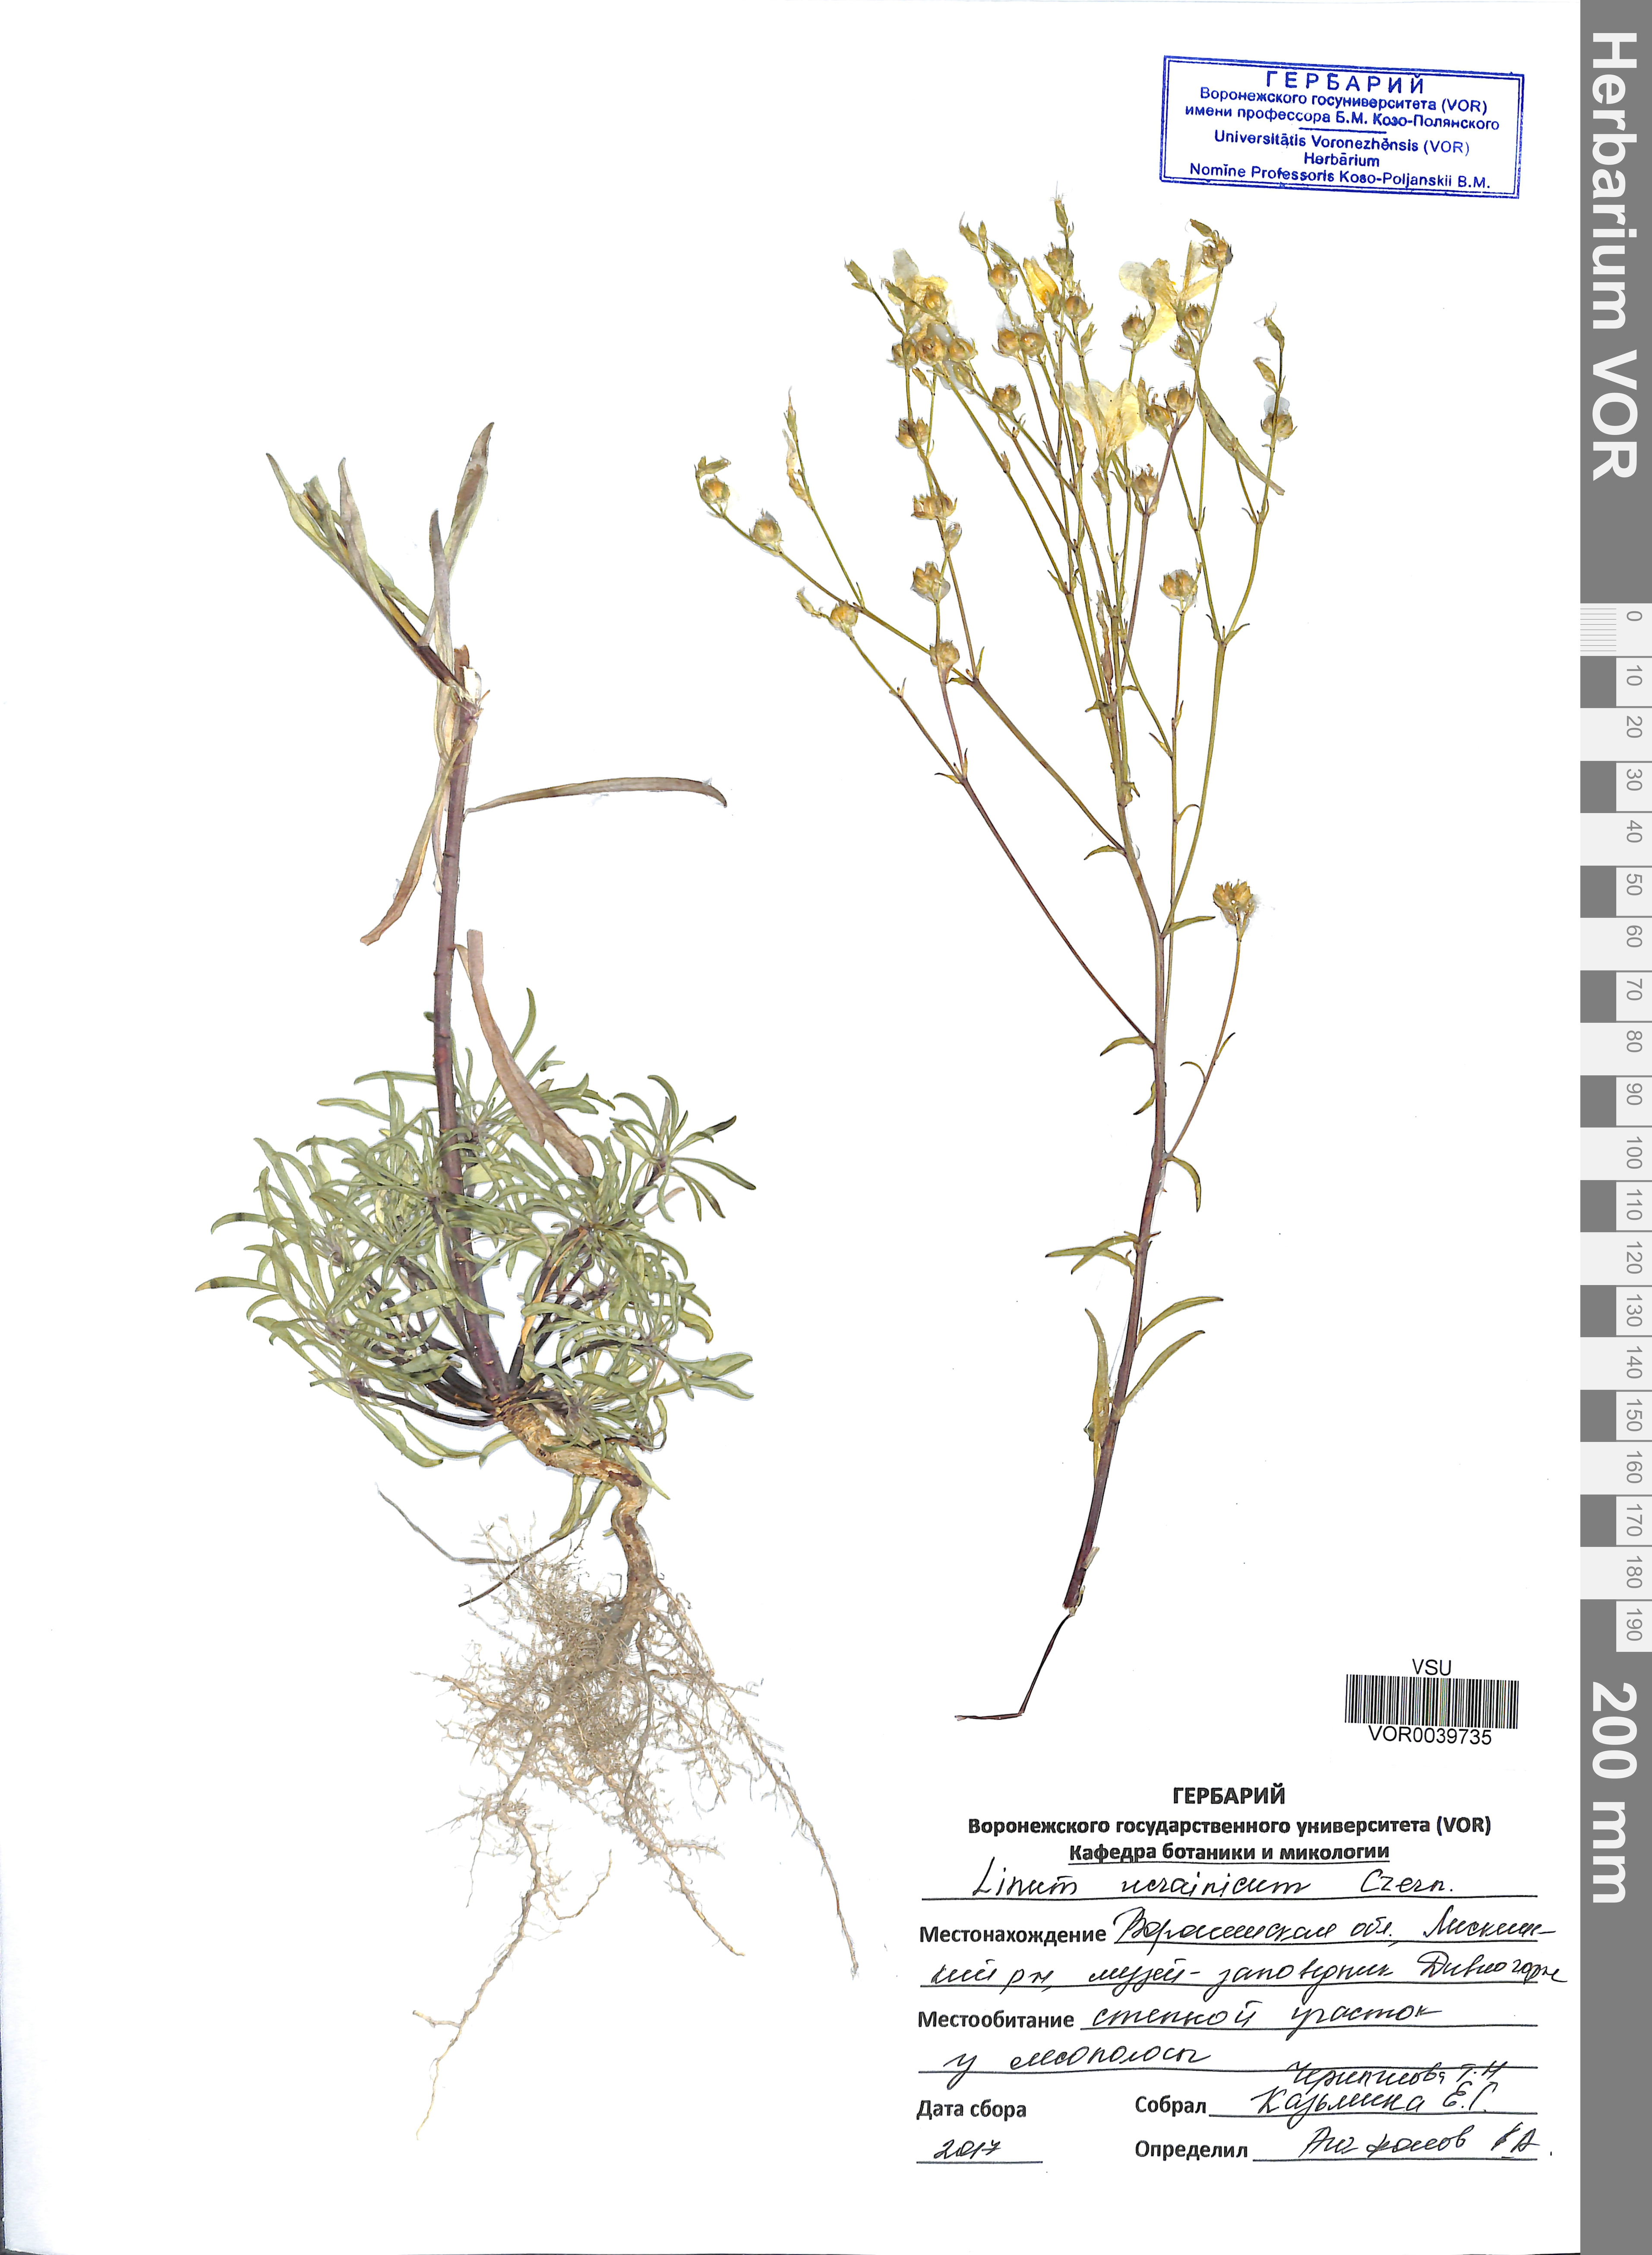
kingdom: Plantae
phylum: Tracheophyta
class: Magnoliopsida
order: Malpighiales
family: Linaceae
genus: Linum
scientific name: Linum ucranicum
